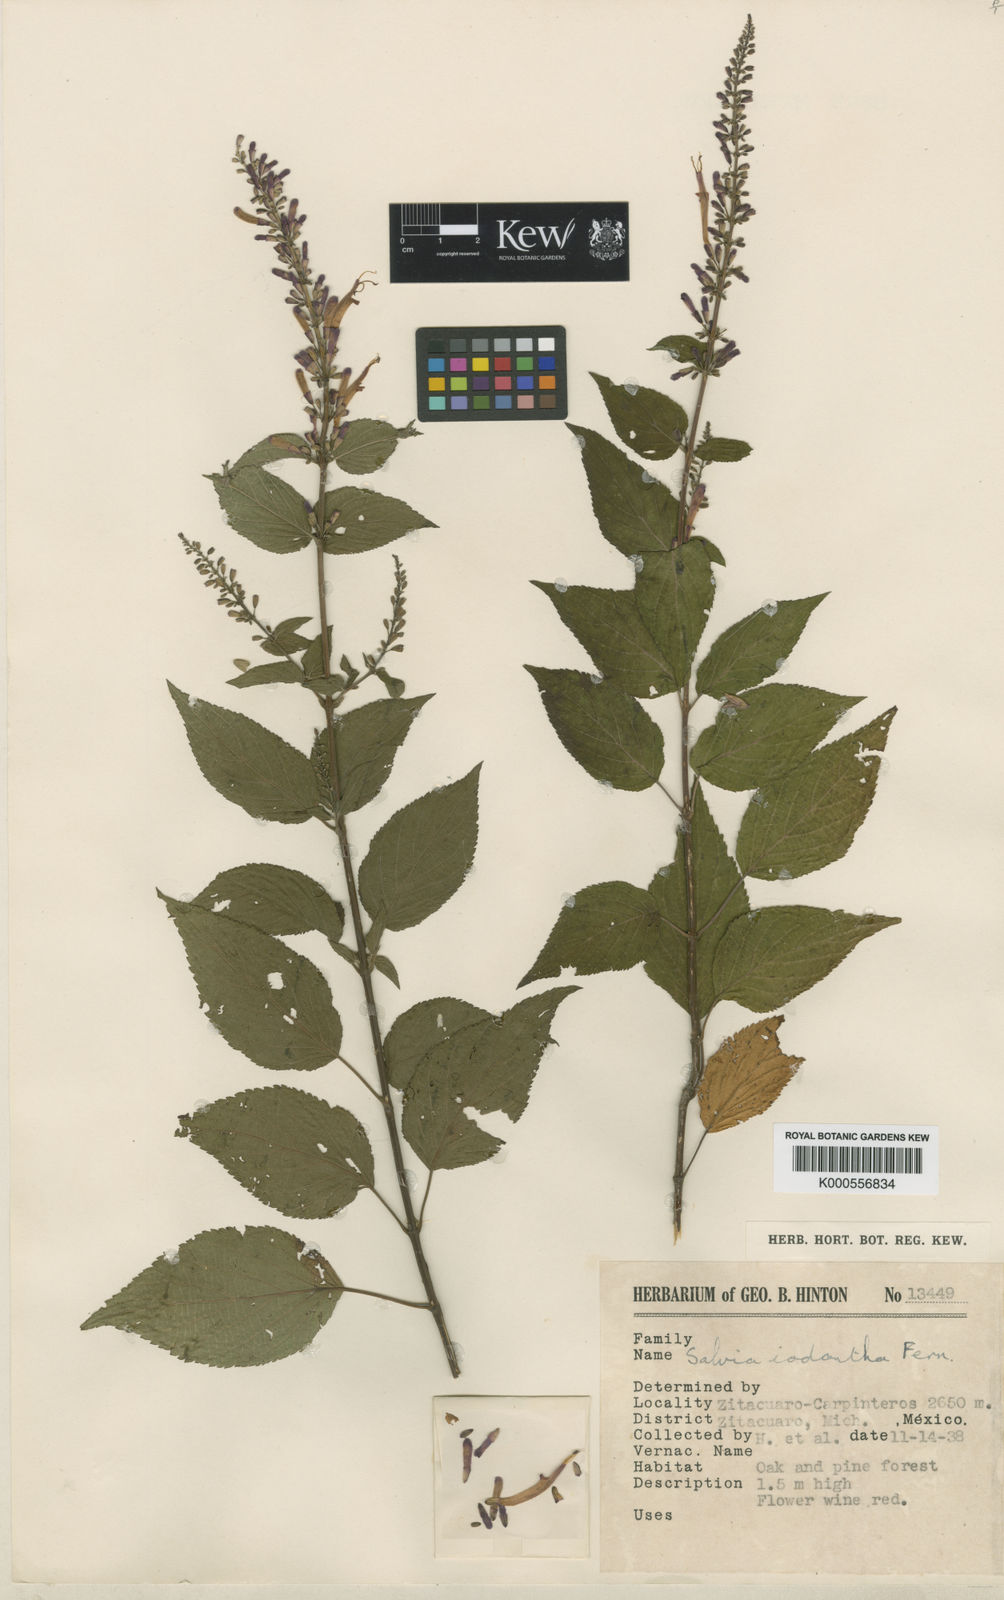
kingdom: Plantae
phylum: Tracheophyta
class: Magnoliopsida
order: Lamiales
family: Lamiaceae
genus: Salvia
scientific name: Salvia iodantha
